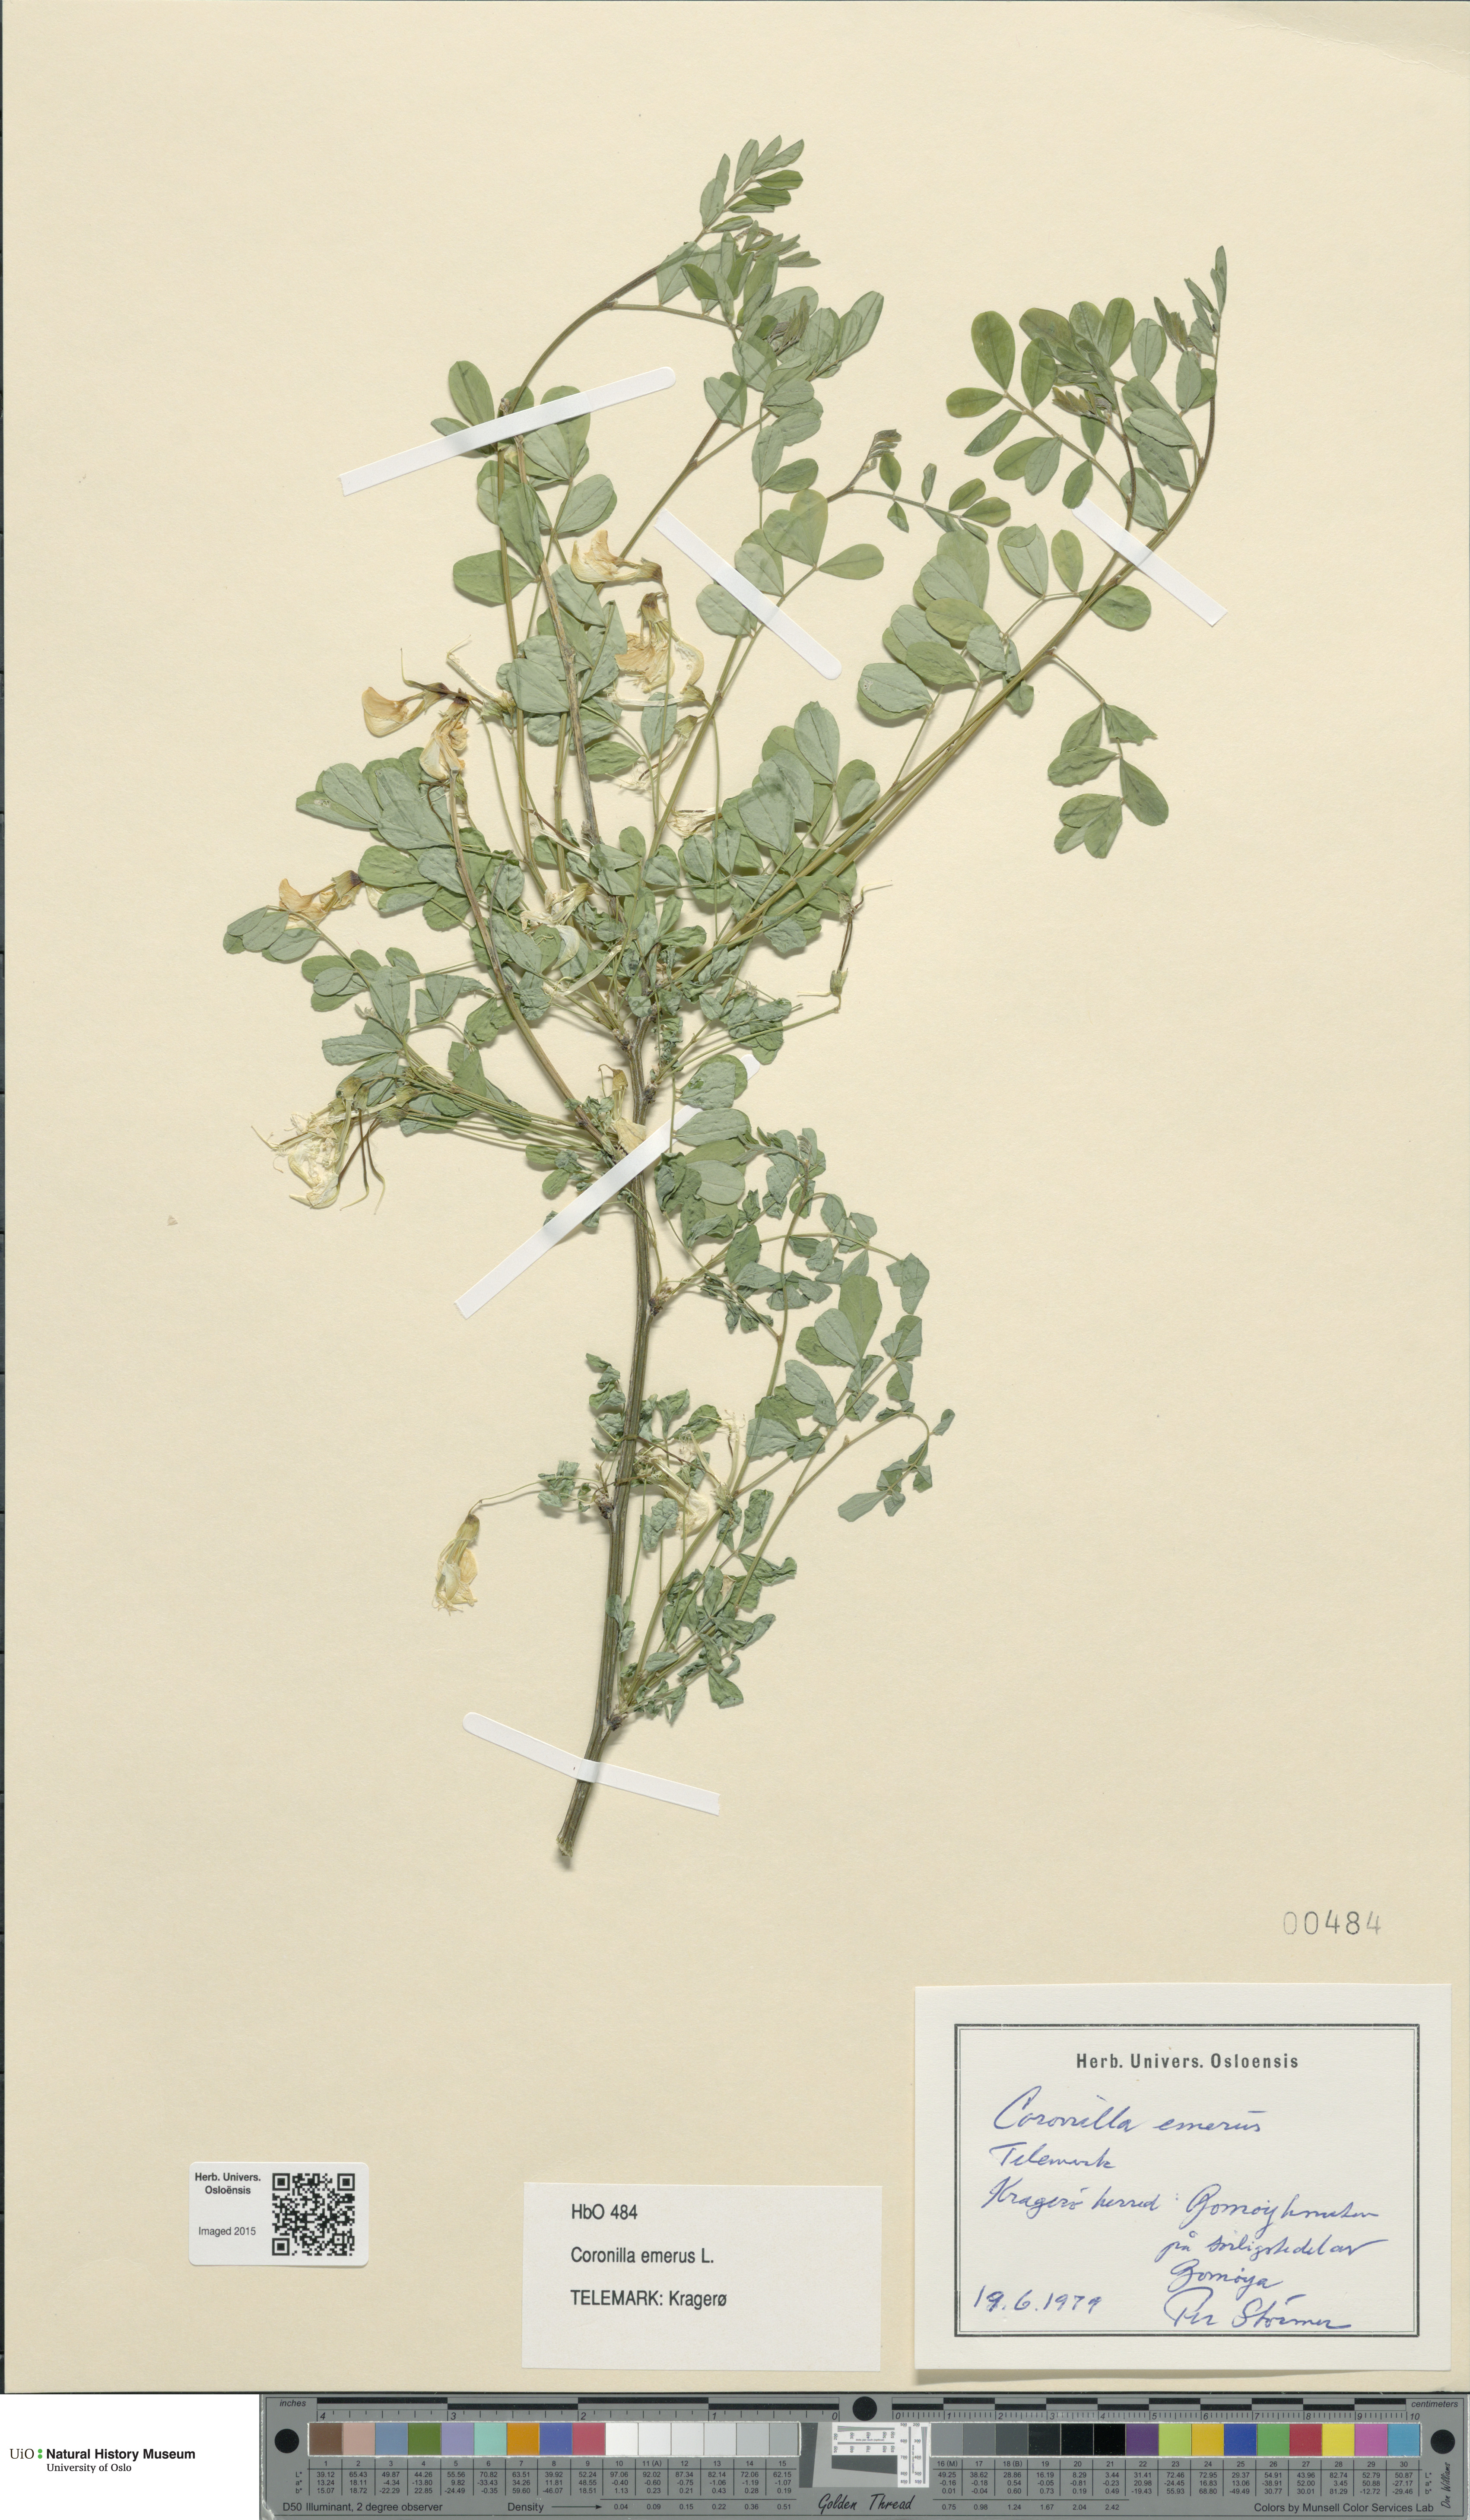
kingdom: Plantae
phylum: Tracheophyta
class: Magnoliopsida
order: Fabales
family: Fabaceae
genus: Hippocrepis
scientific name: Hippocrepis emerus
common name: Scorpion senna
